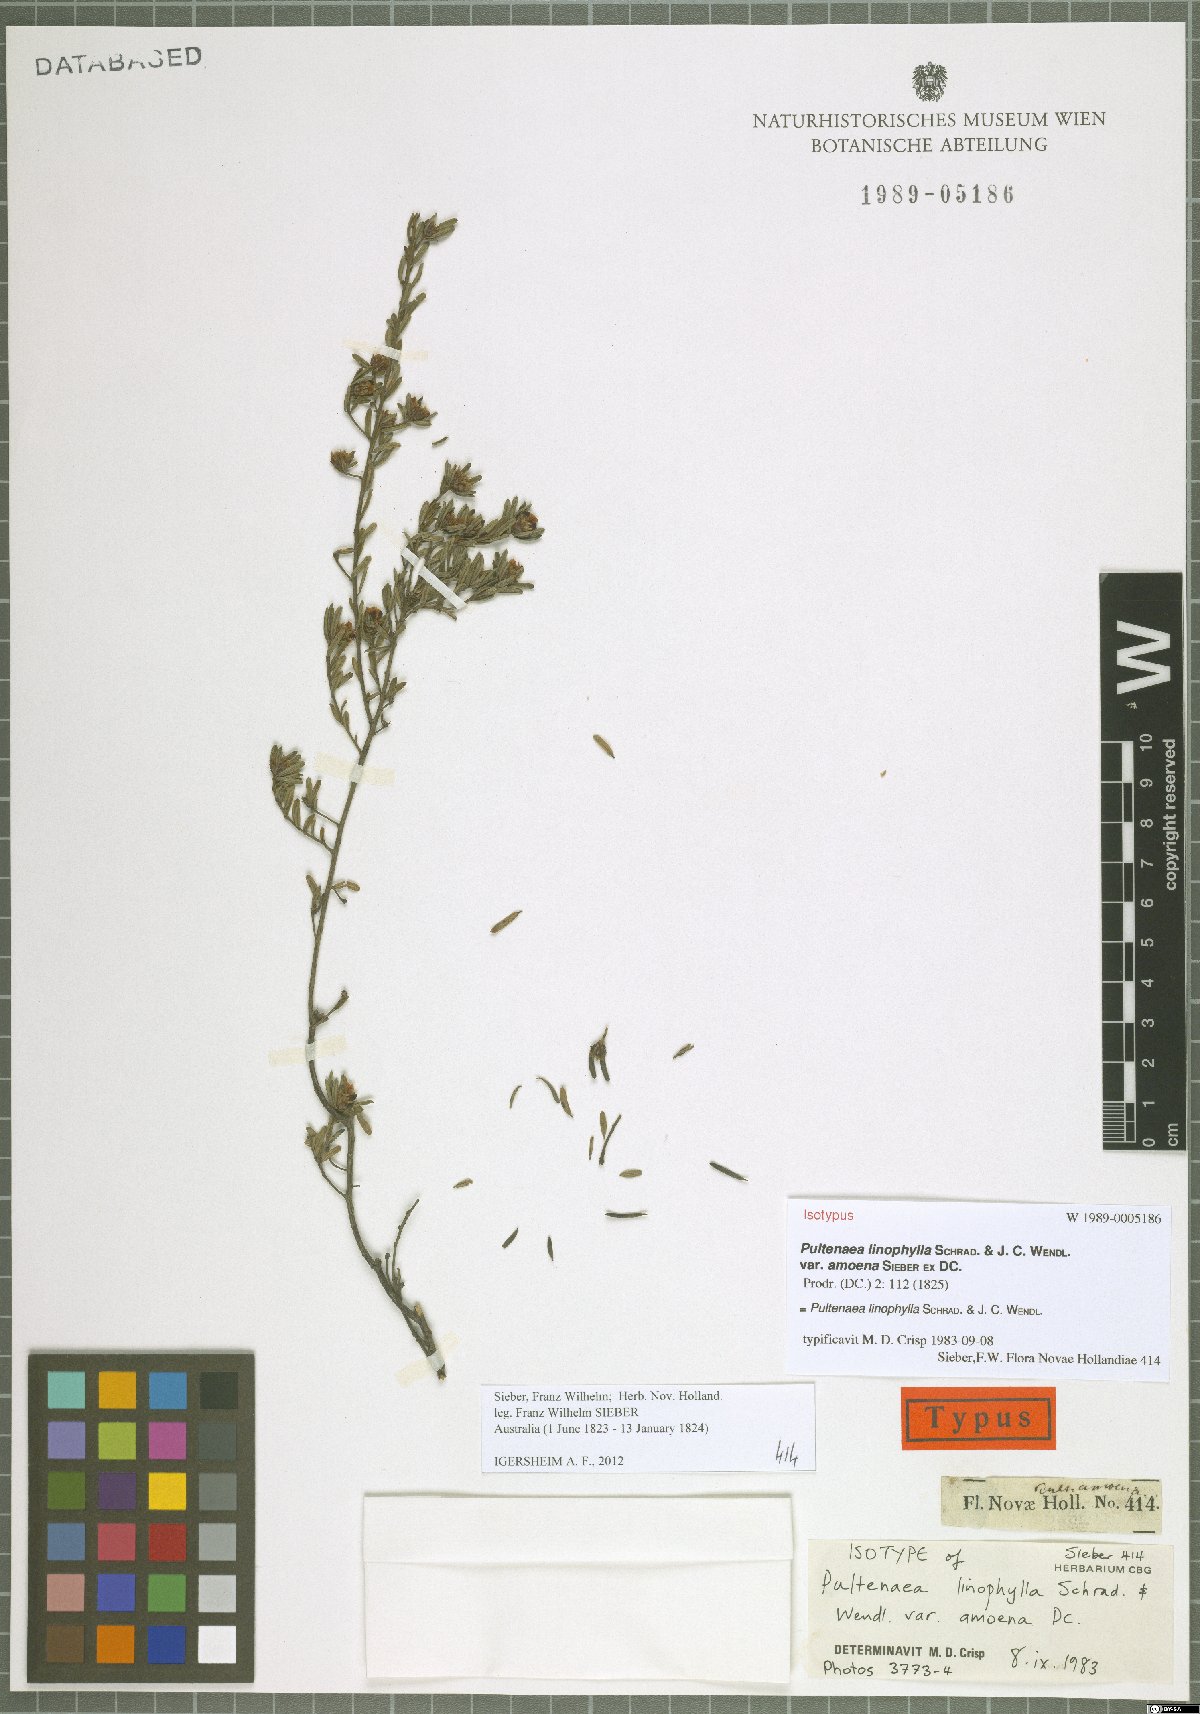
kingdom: Plantae
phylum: Tracheophyta
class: Magnoliopsida
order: Fabales
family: Fabaceae
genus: Pultenaea
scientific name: Pultenaea linophylla
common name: Halo bush-pea
